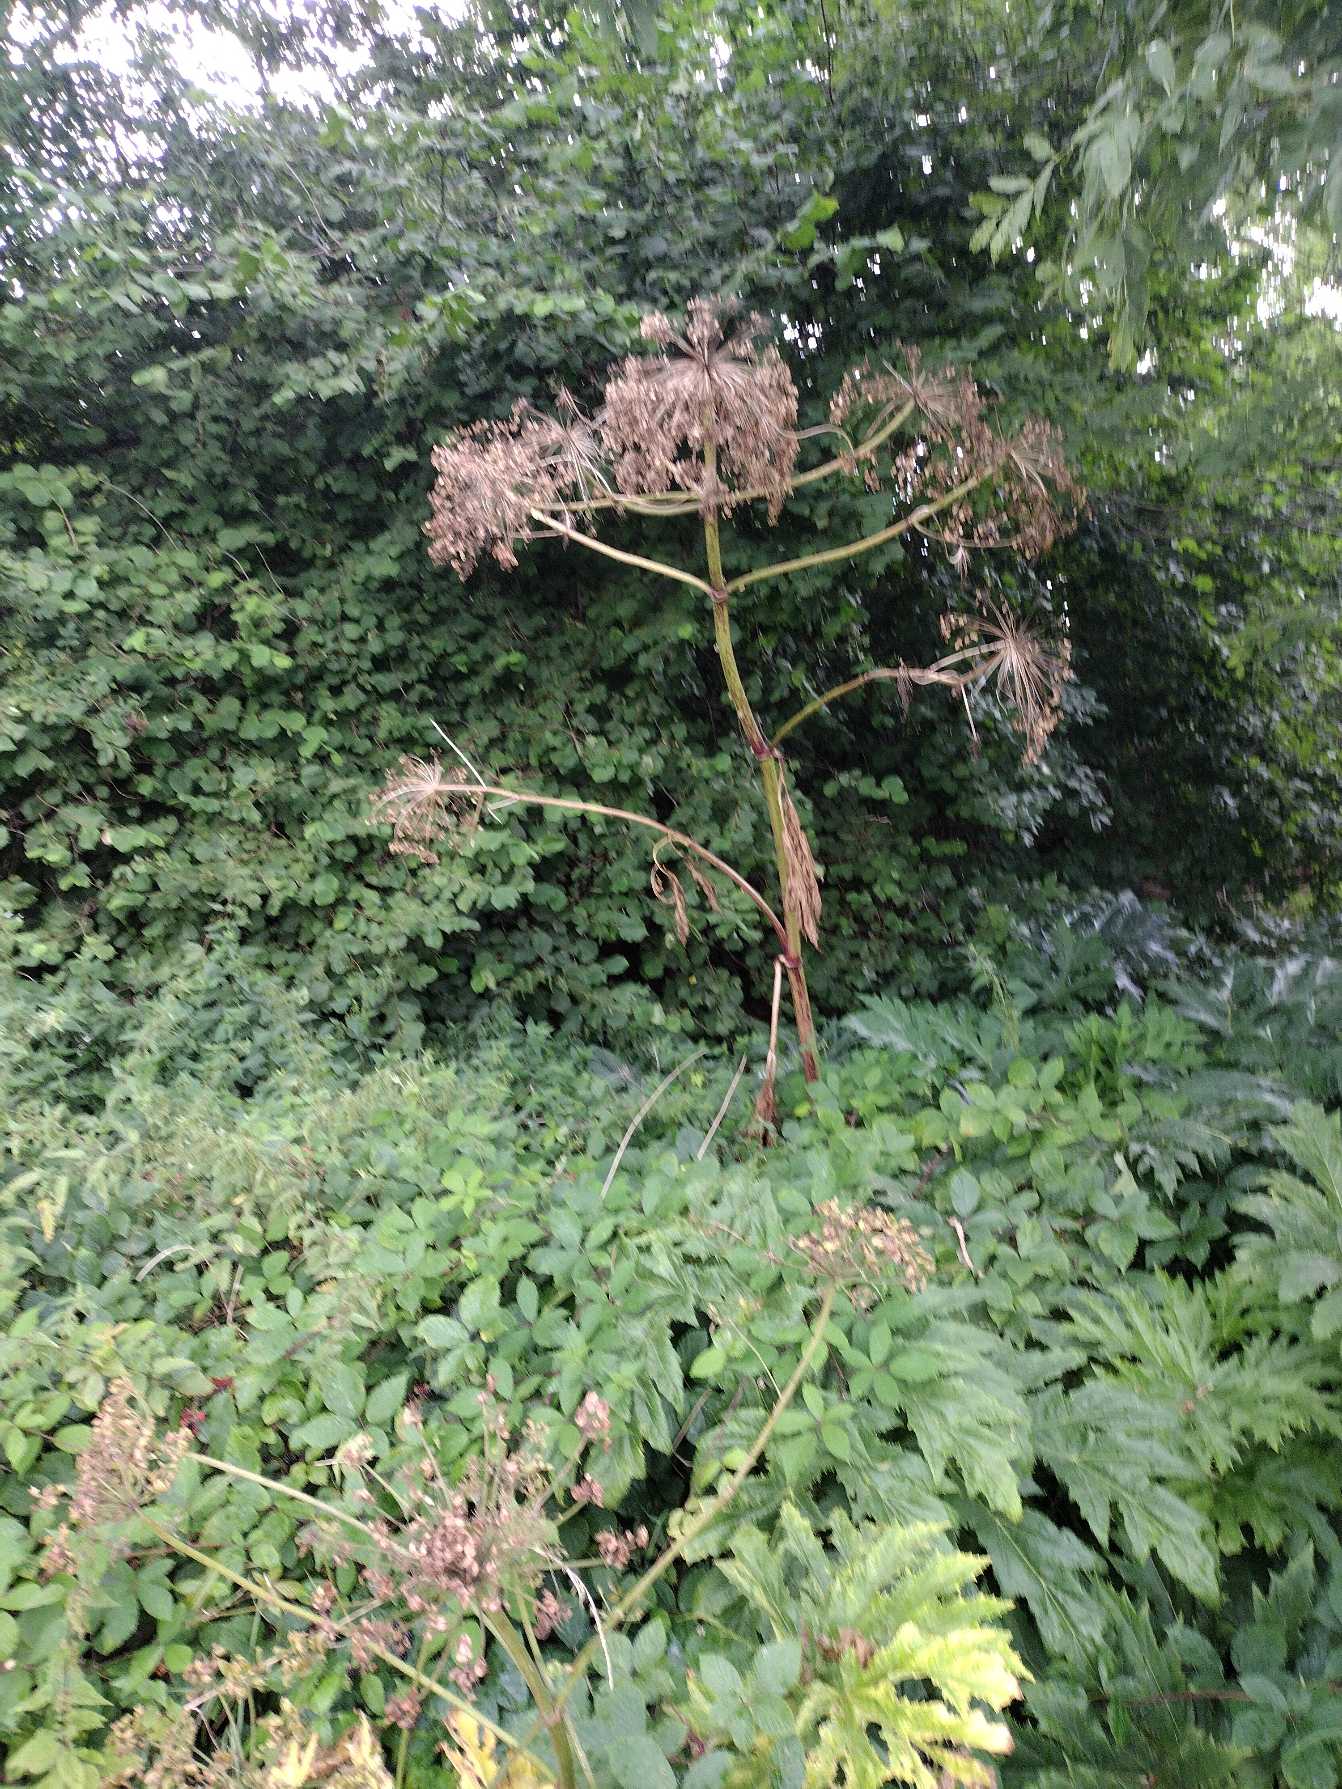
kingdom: Plantae
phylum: Tracheophyta
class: Magnoliopsida
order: Apiales
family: Apiaceae
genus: Heracleum
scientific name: Heracleum mantegazzianum
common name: Kæmpe-bjørneklo
